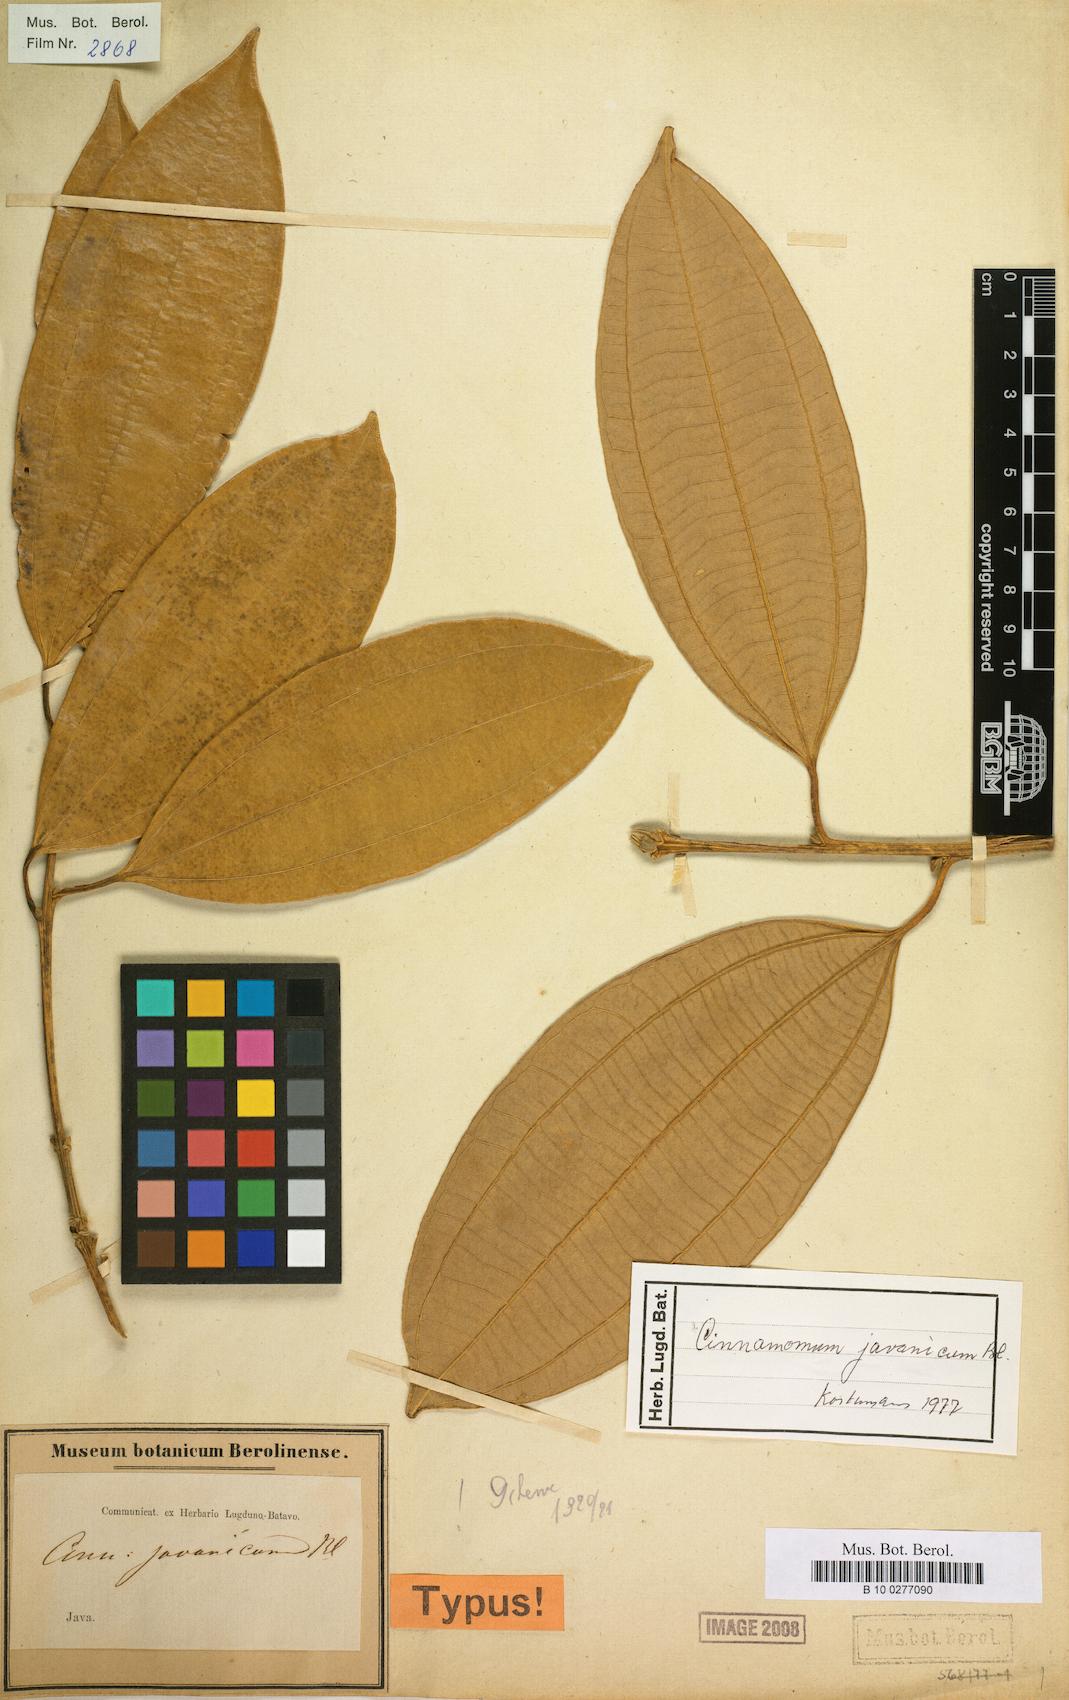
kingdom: Plantae
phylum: Tracheophyta
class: Magnoliopsida
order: Laurales
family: Lauraceae
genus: Cinnamomum
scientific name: Cinnamomum javanicum
